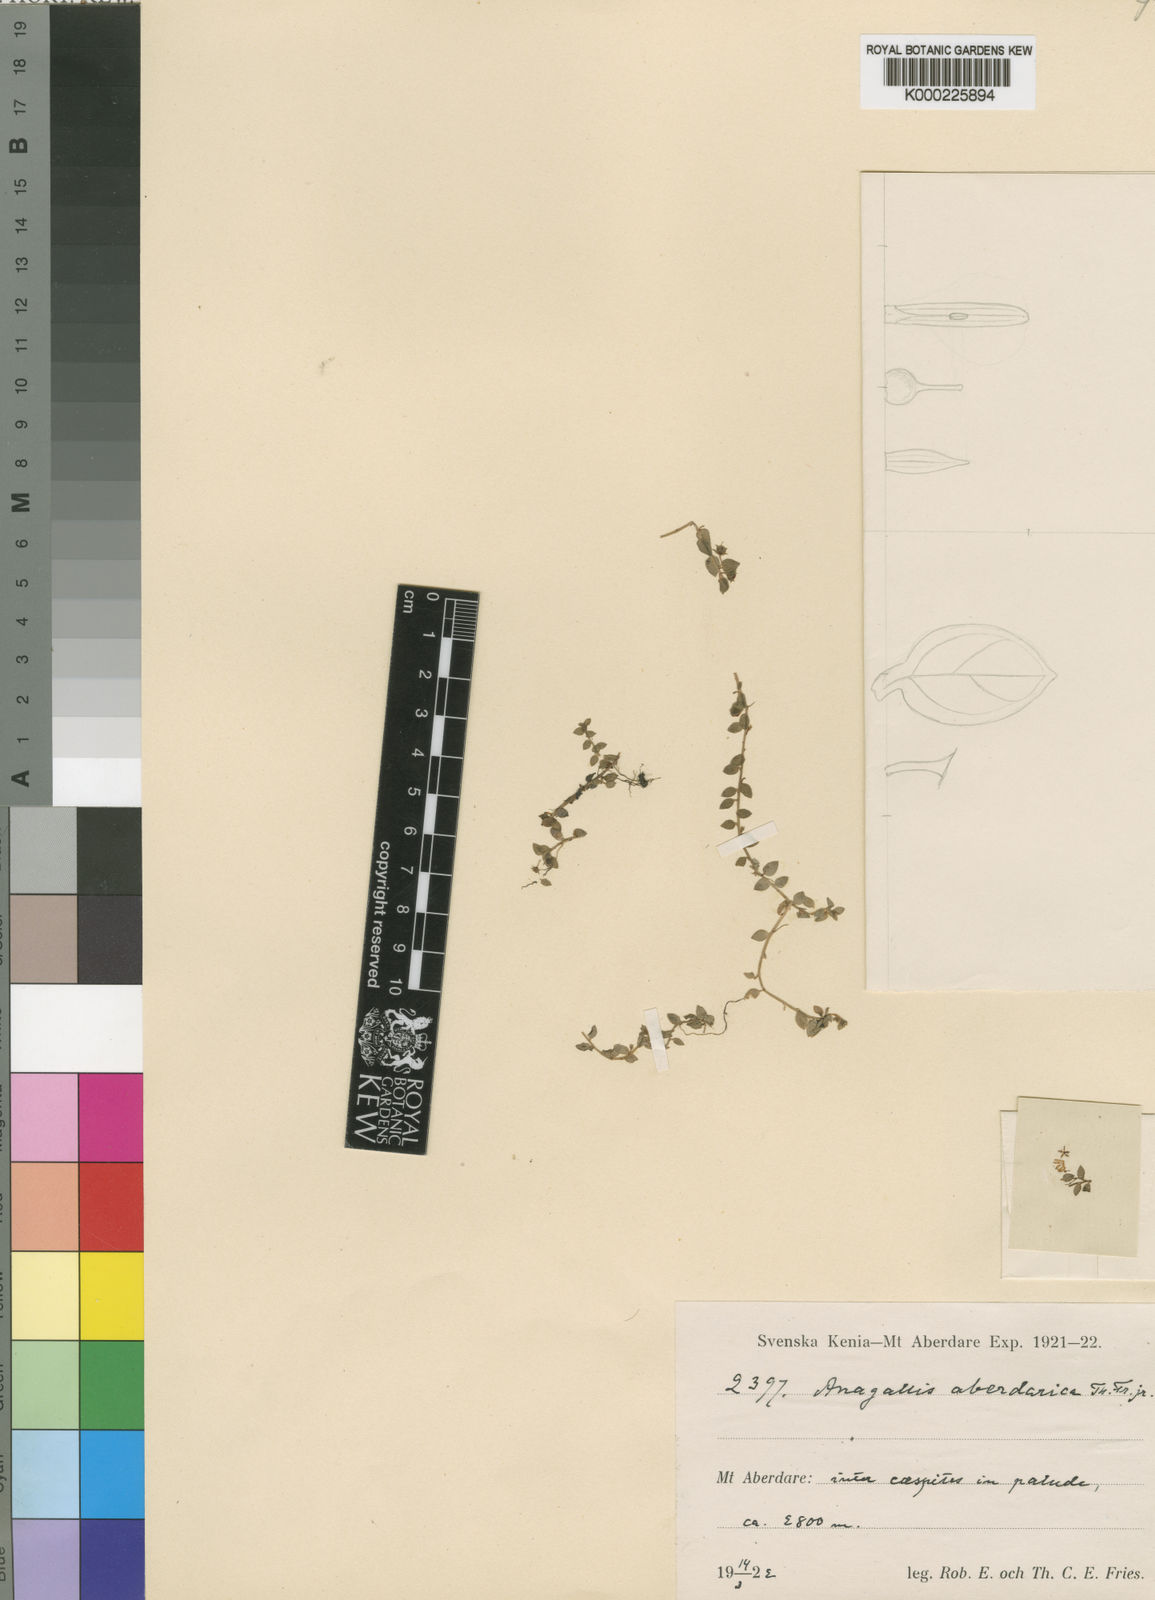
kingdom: Plantae
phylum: Tracheophyta
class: Magnoliopsida
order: Ericales
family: Primulaceae
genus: Lysimachia
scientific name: Lysimachia Anagallis spec
